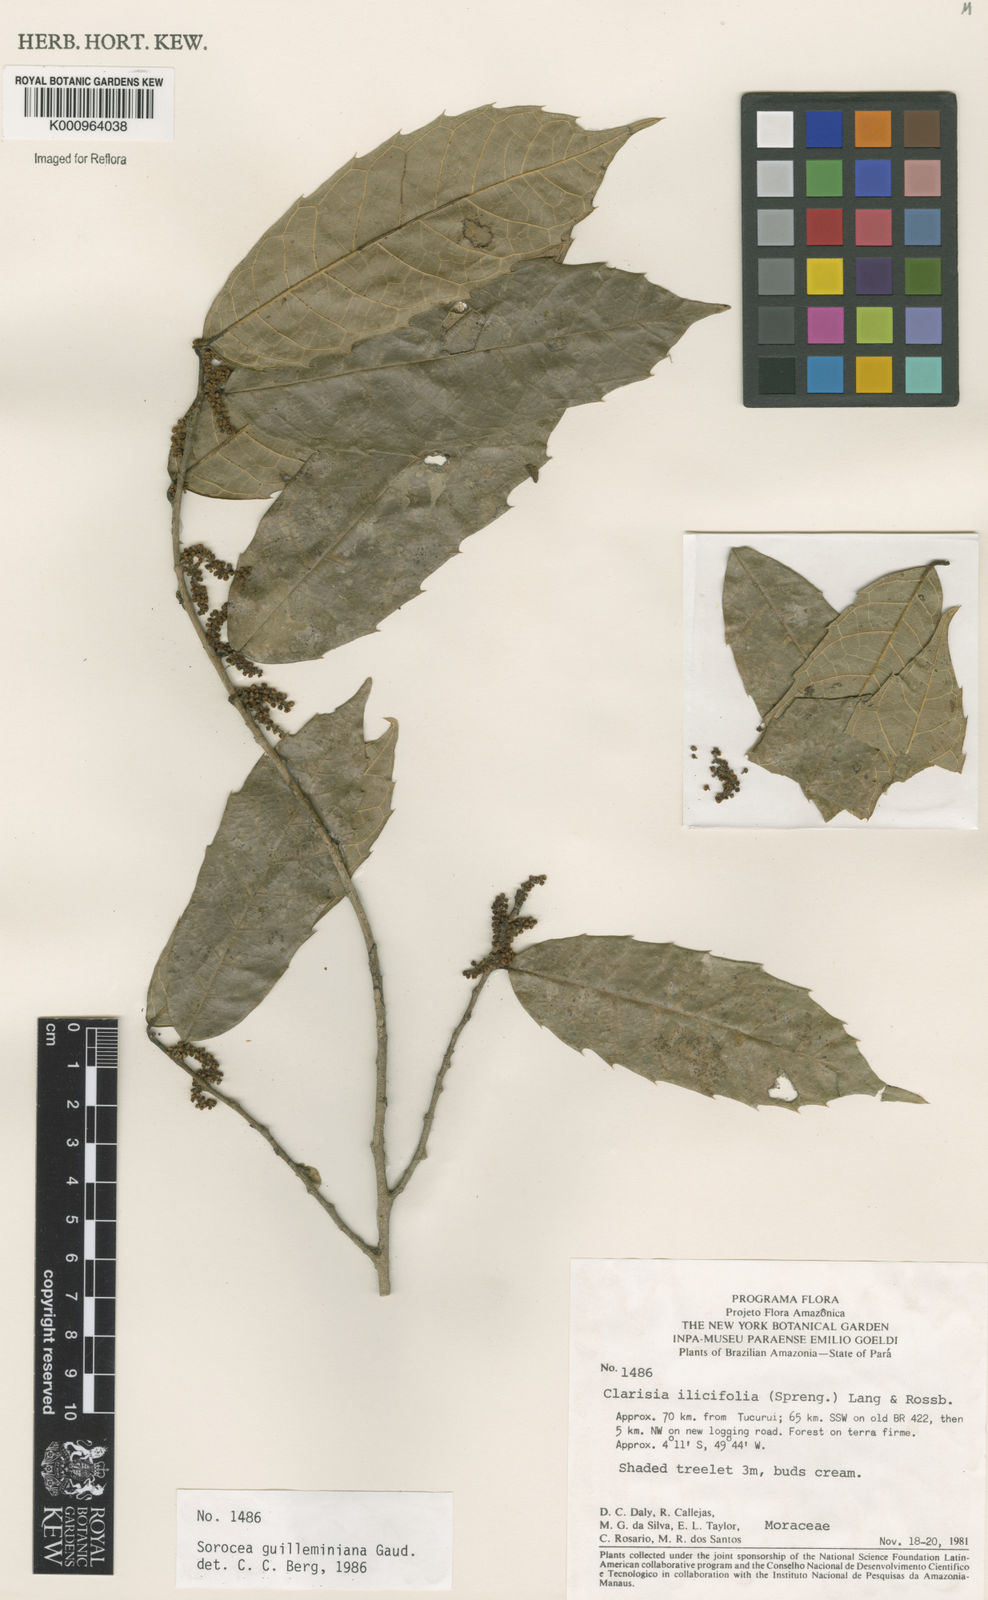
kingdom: Plantae
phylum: Tracheophyta
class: Magnoliopsida
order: Rosales
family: Moraceae
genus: Sorocea
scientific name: Sorocea guilleminiana
